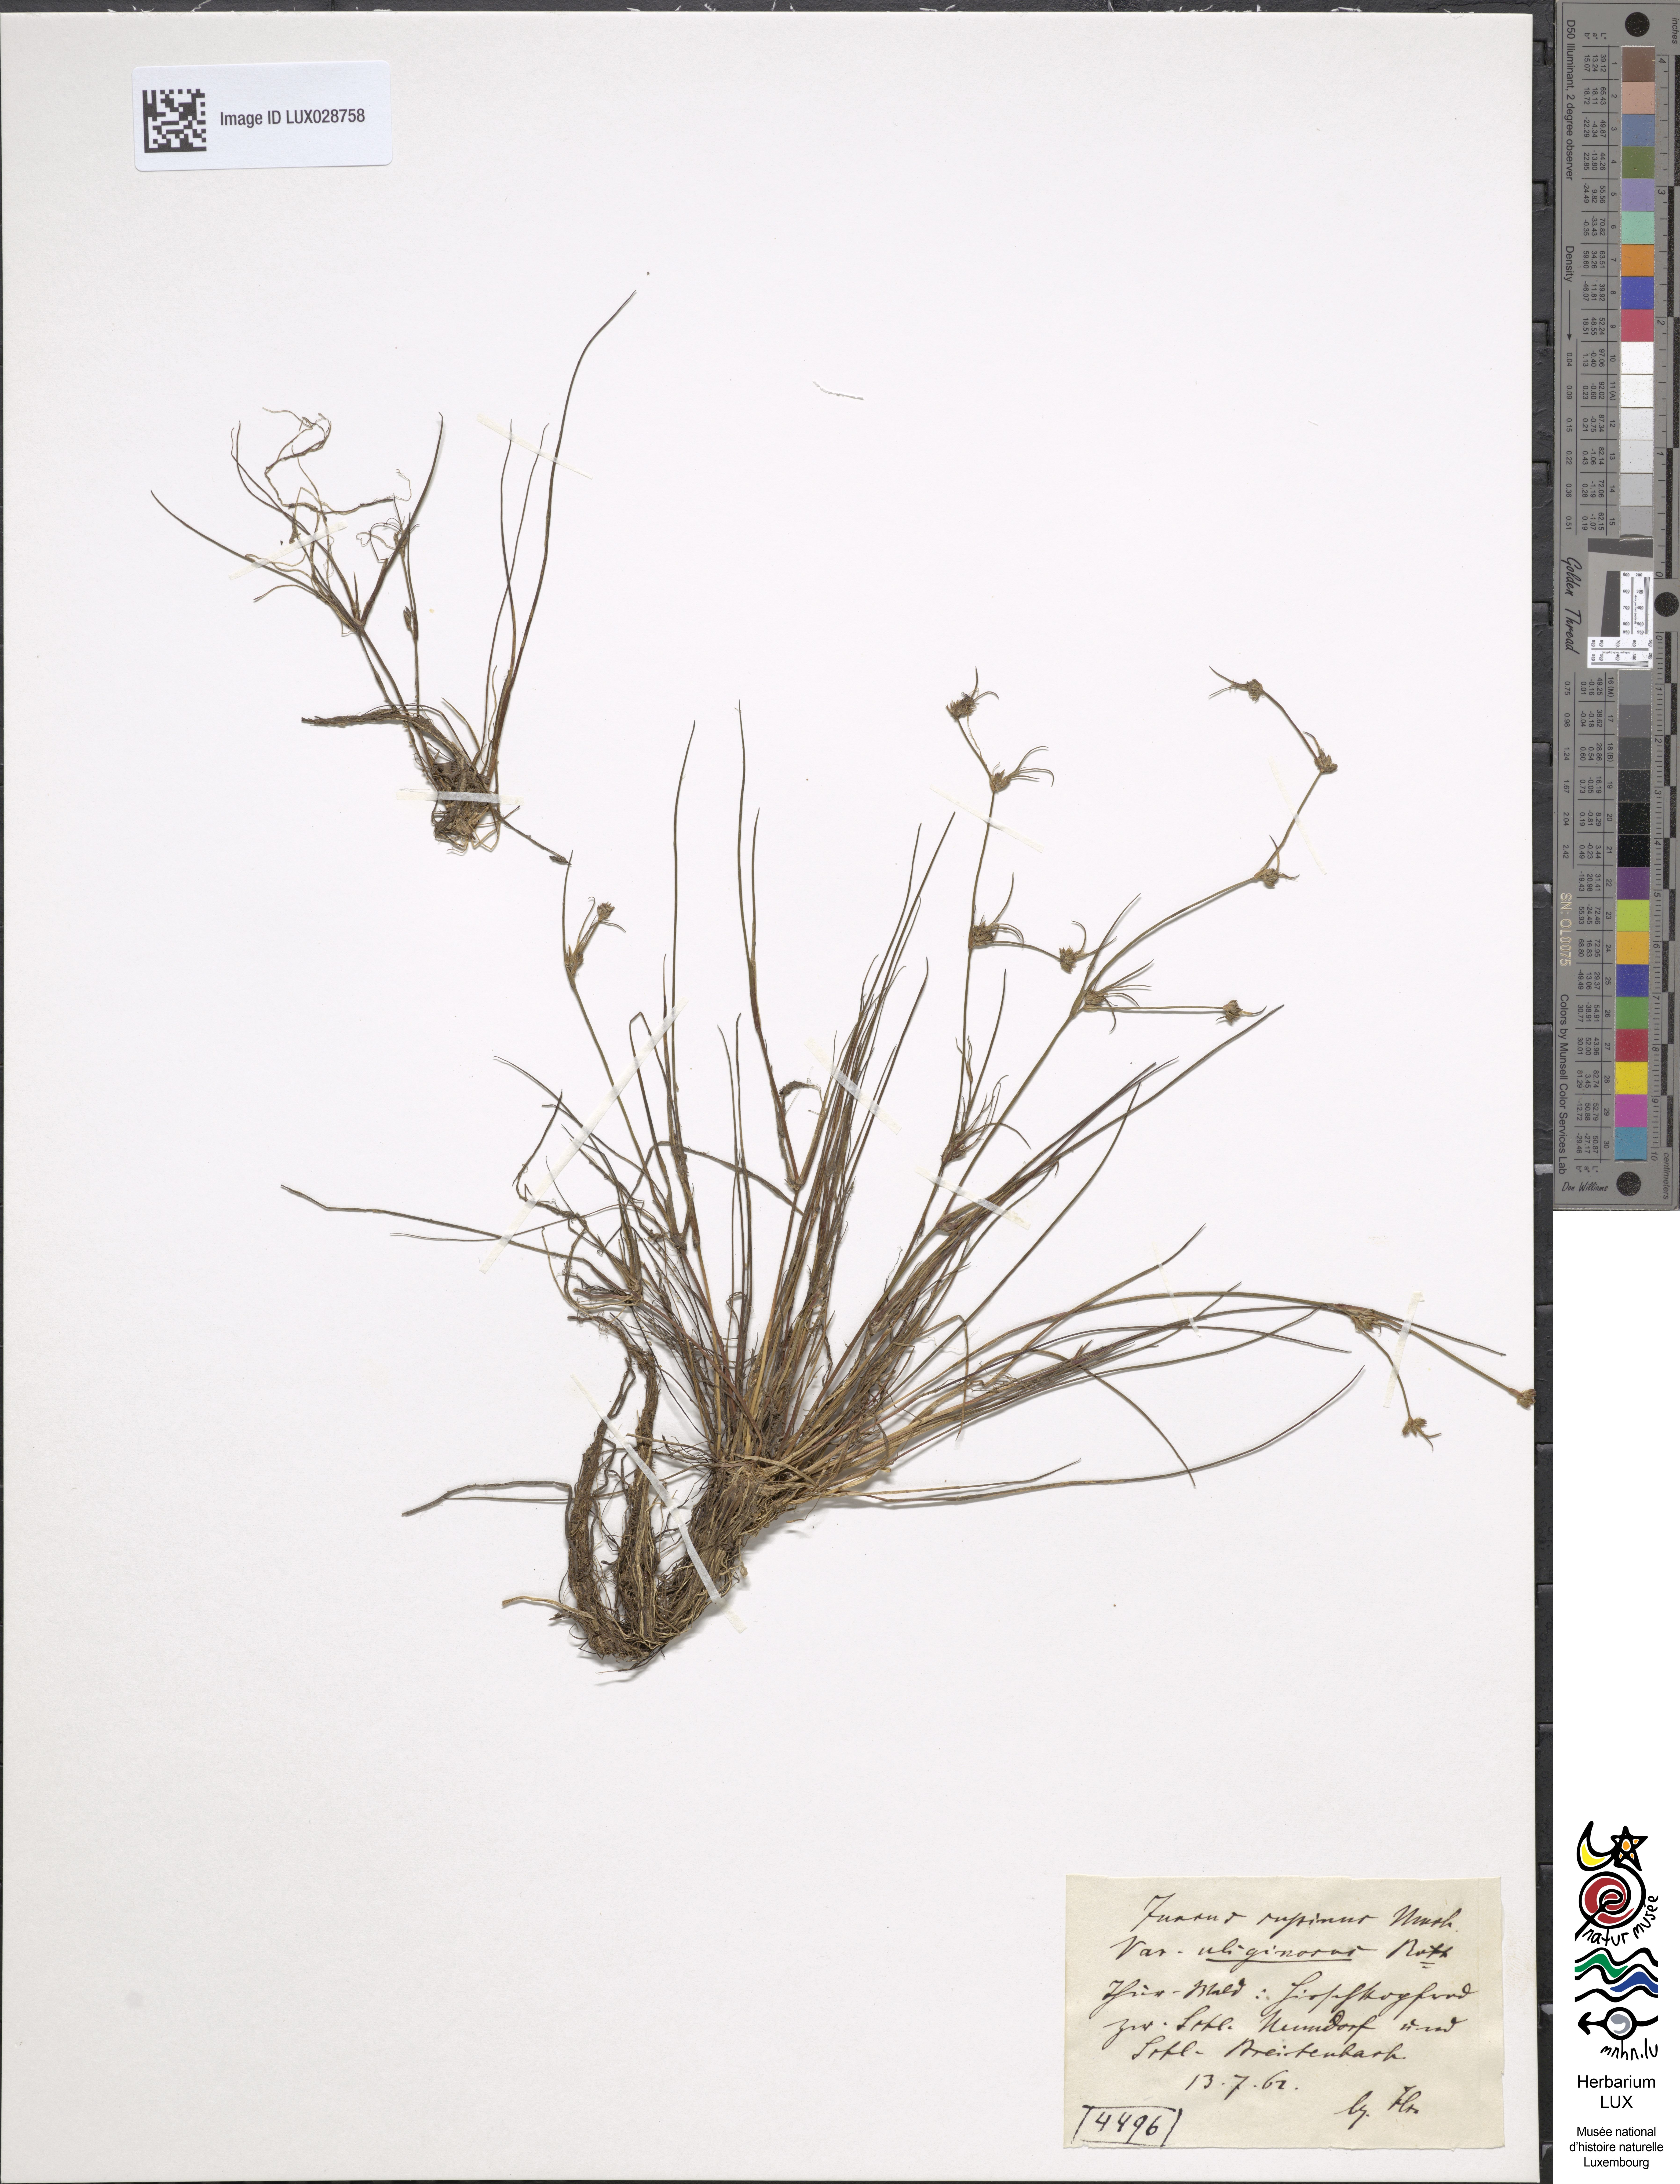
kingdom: Plantae
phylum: Tracheophyta
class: Liliopsida
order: Poales
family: Juncaceae
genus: Juncus
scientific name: Juncus bulbosus
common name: Bulbous rush
